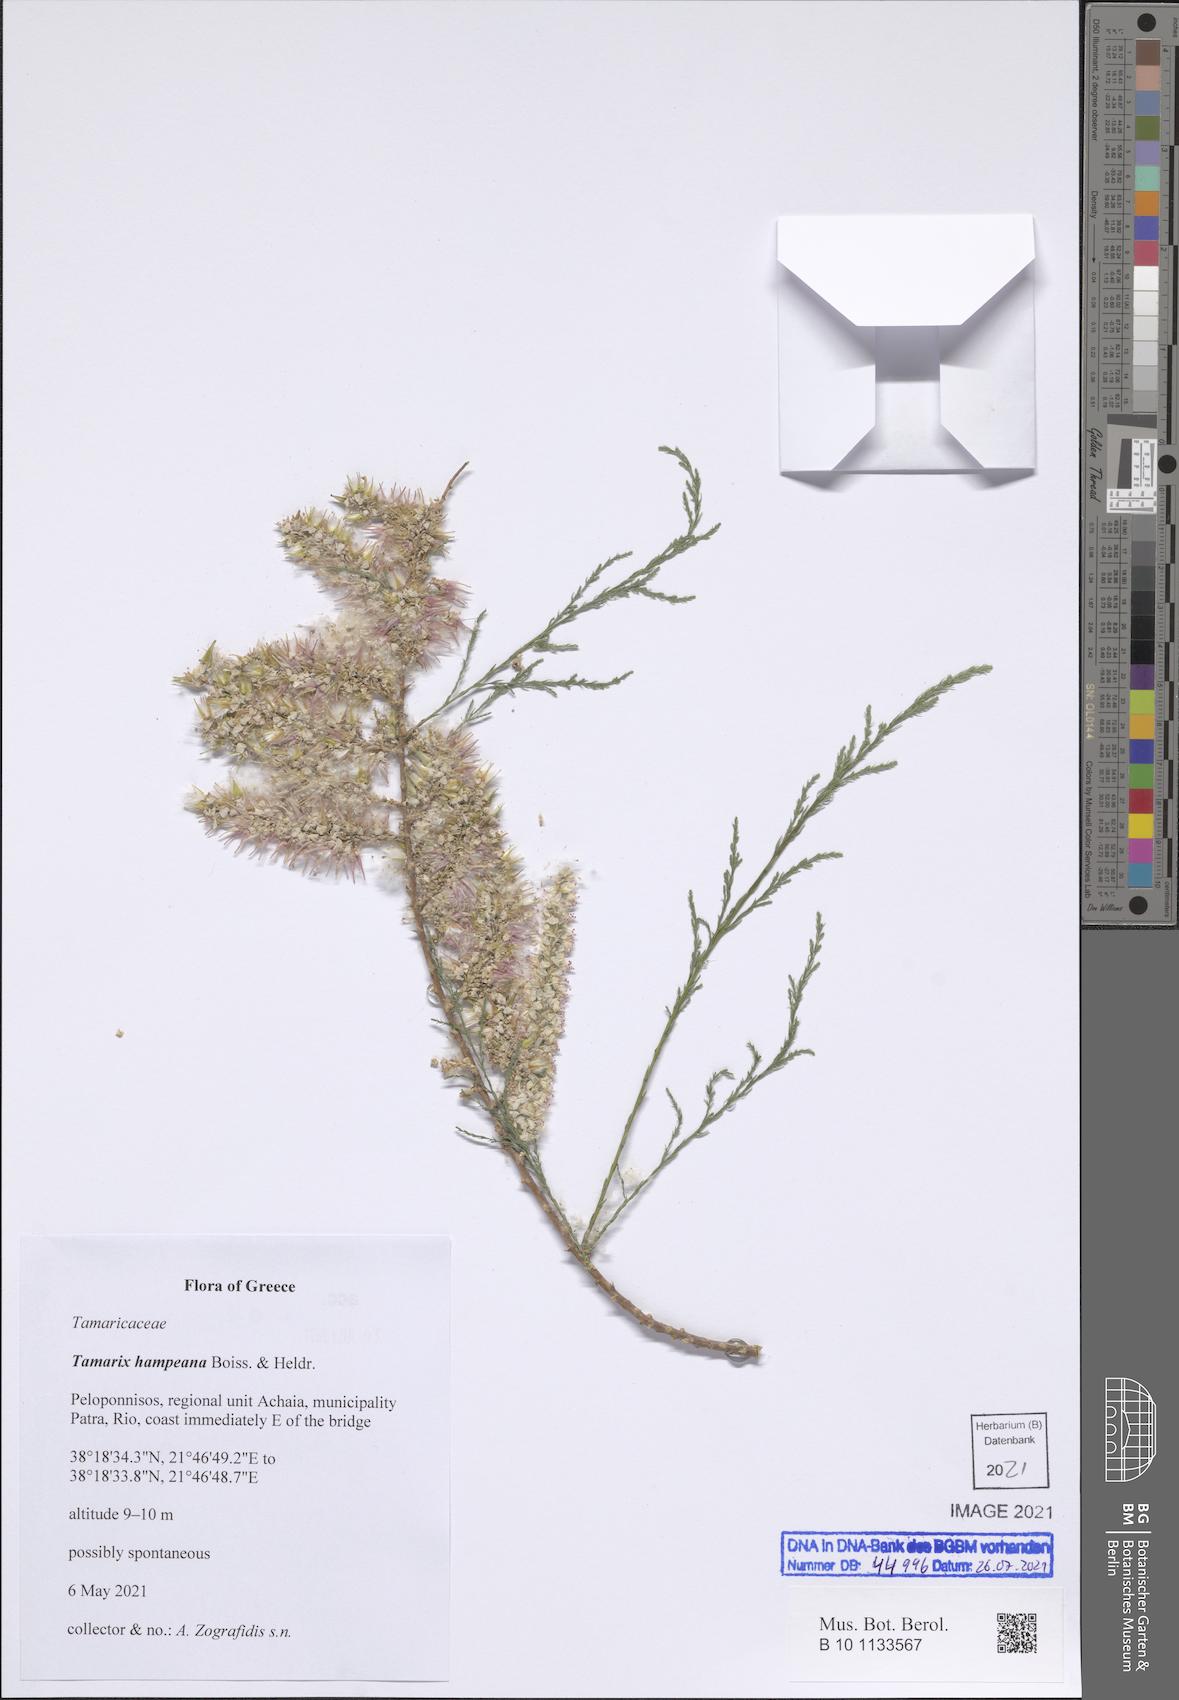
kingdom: Plantae
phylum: Tracheophyta
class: Magnoliopsida
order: Caryophyllales
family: Tamaricaceae
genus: Tamarix
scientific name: Tamarix hampeana
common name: Hampe’s tamarisk
